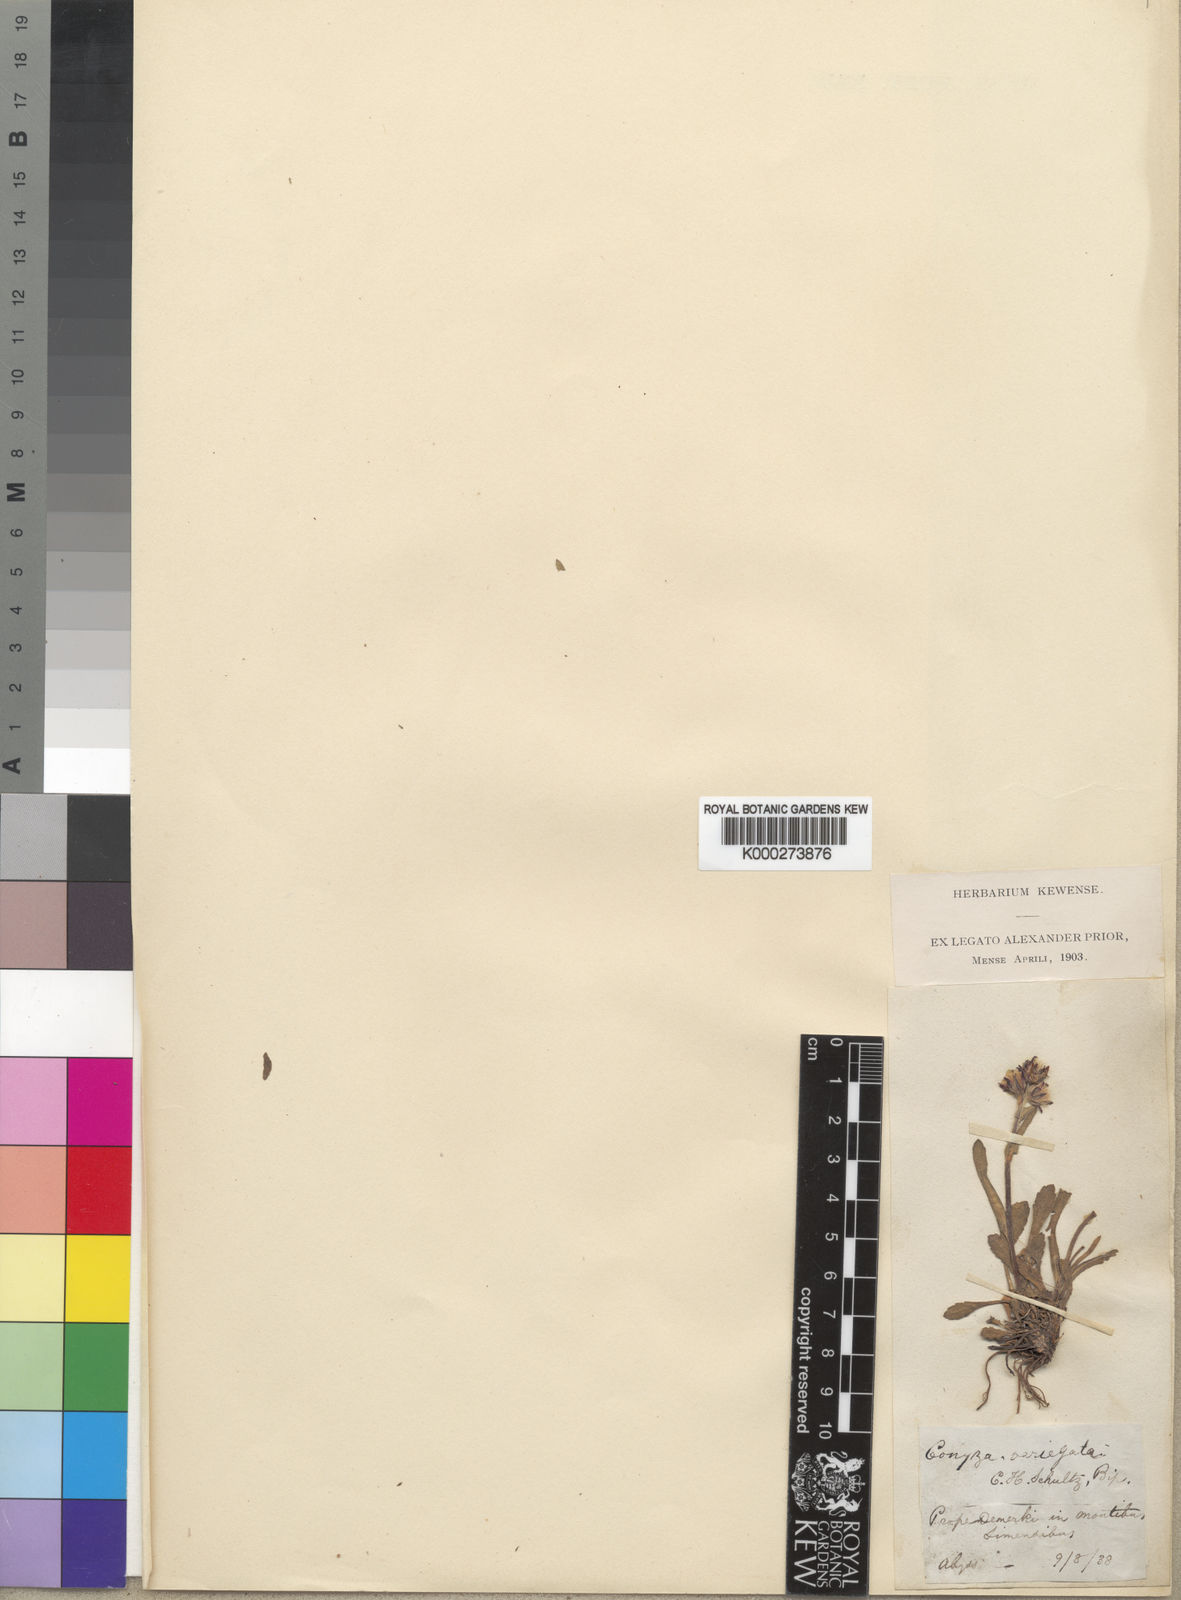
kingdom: Plantae
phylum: Tracheophyta
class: Magnoliopsida
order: Asterales
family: Asteraceae
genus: Conyza
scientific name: Conyza variegata
